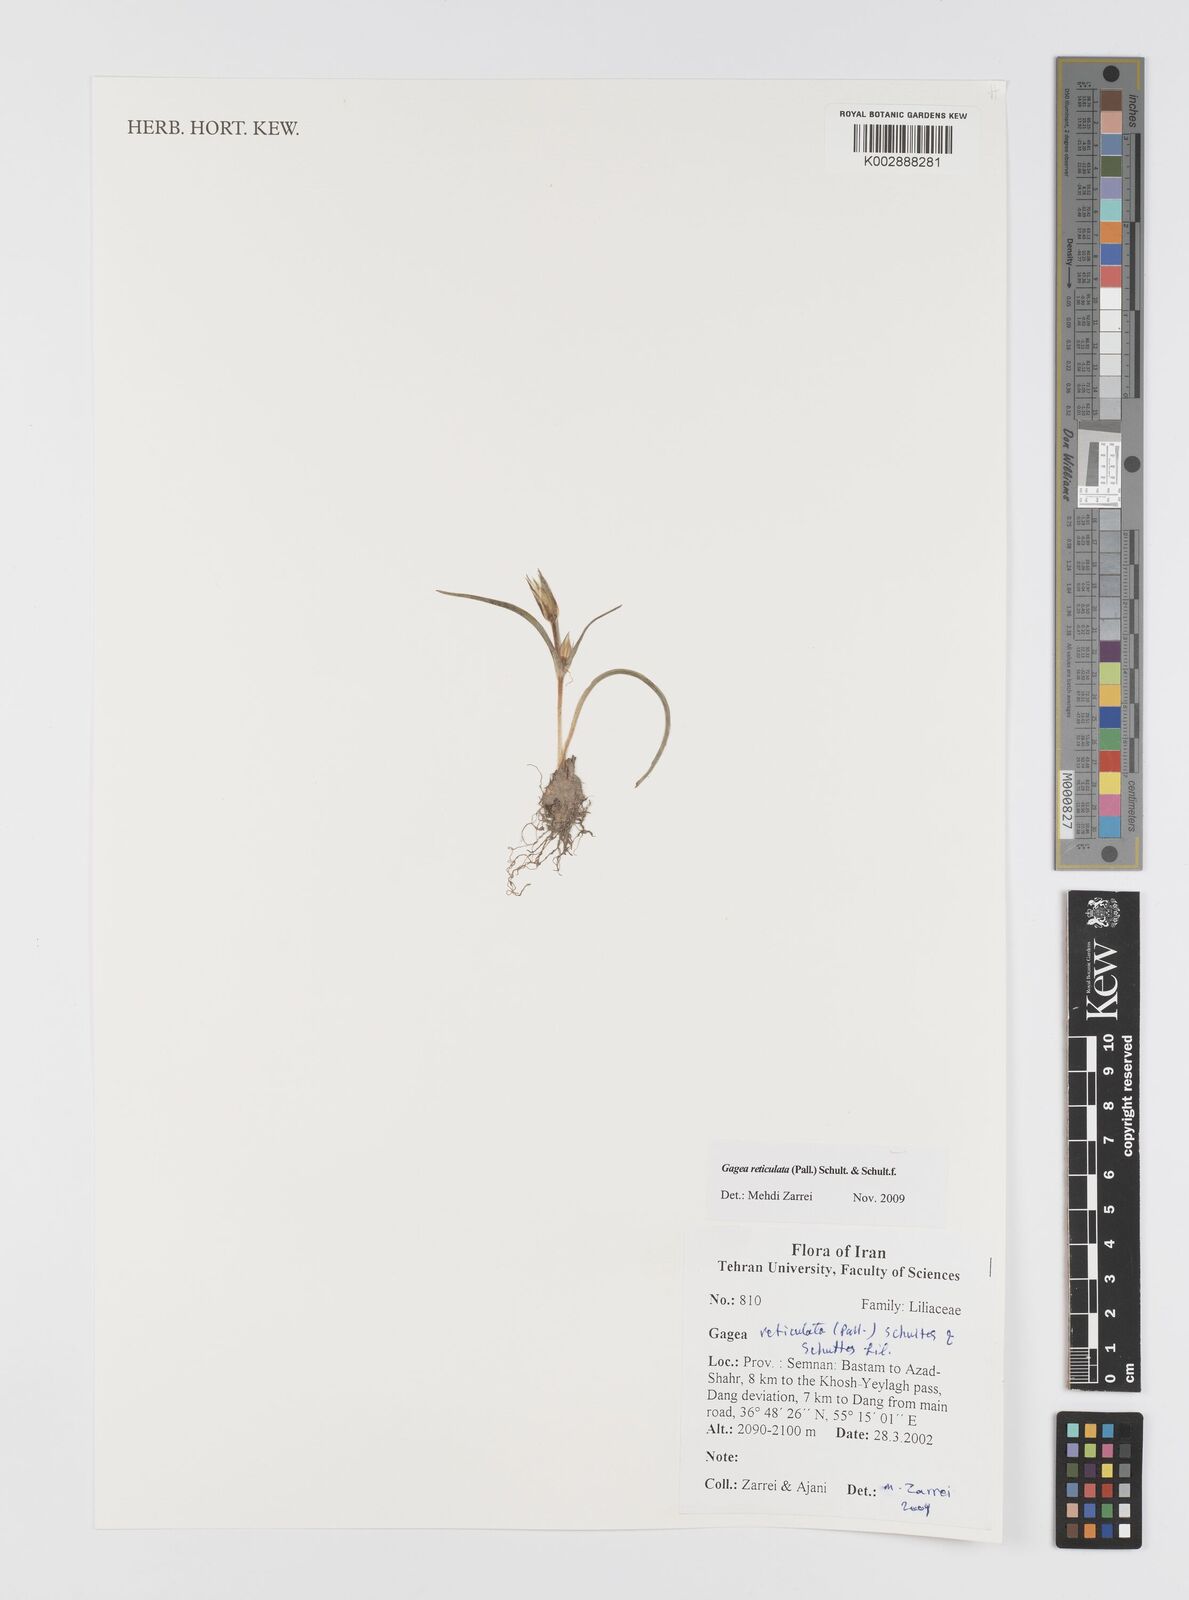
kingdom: Plantae
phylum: Tracheophyta
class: Liliopsida
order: Liliales
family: Liliaceae
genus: Gagea
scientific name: Gagea reticulata
